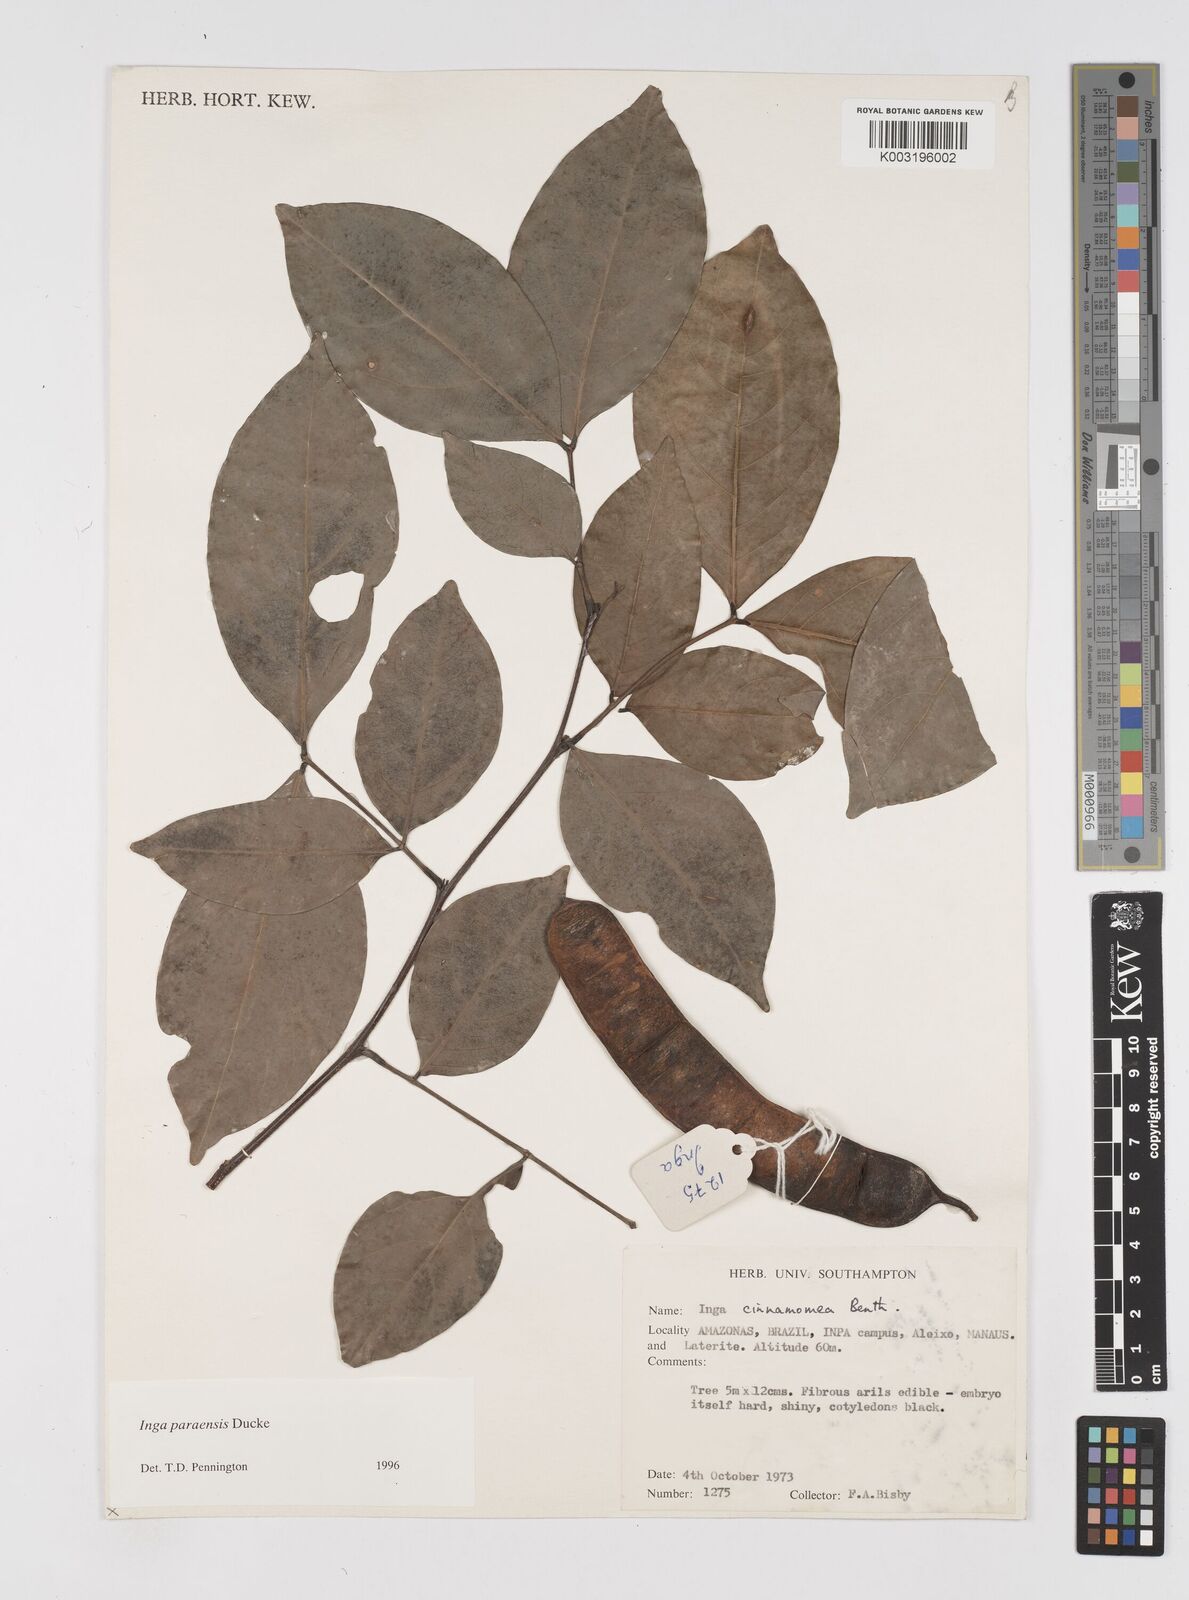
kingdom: Plantae
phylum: Tracheophyta
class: Magnoliopsida
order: Fabales
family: Fabaceae
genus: Inga
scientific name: Inga paraensis
